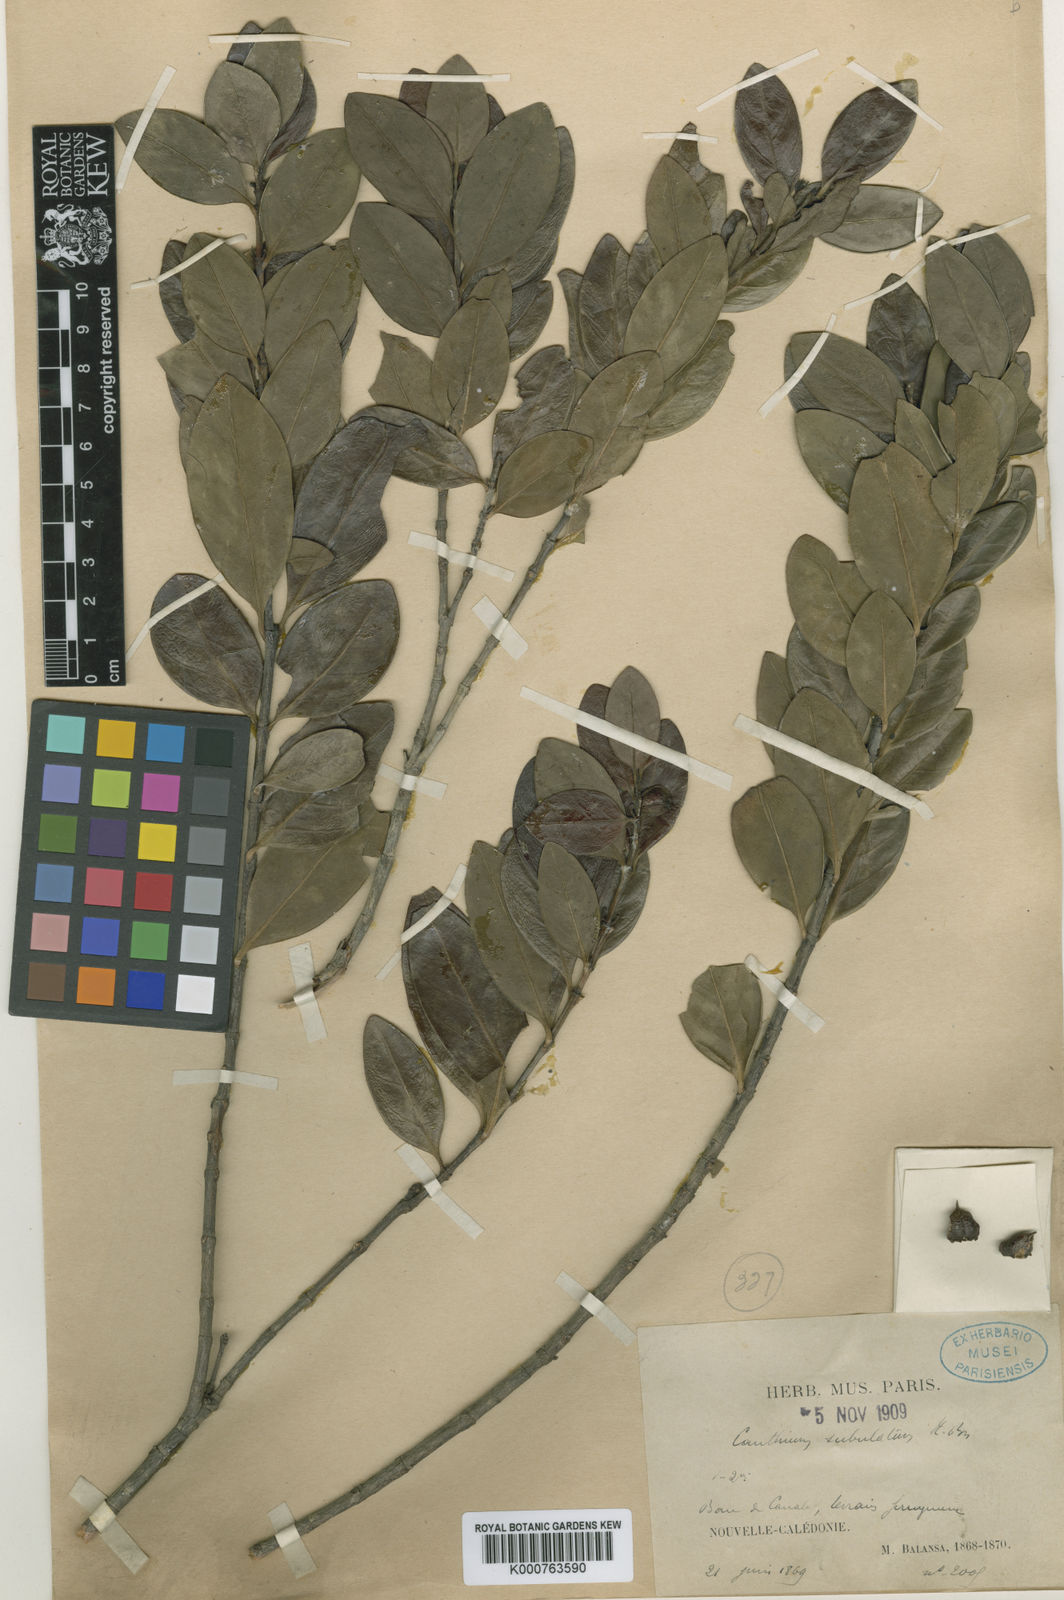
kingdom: Plantae
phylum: Tracheophyta
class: Magnoliopsida
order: Gentianales
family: Rubiaceae
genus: Cyclophyllum
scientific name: Cyclophyllum subulatum
